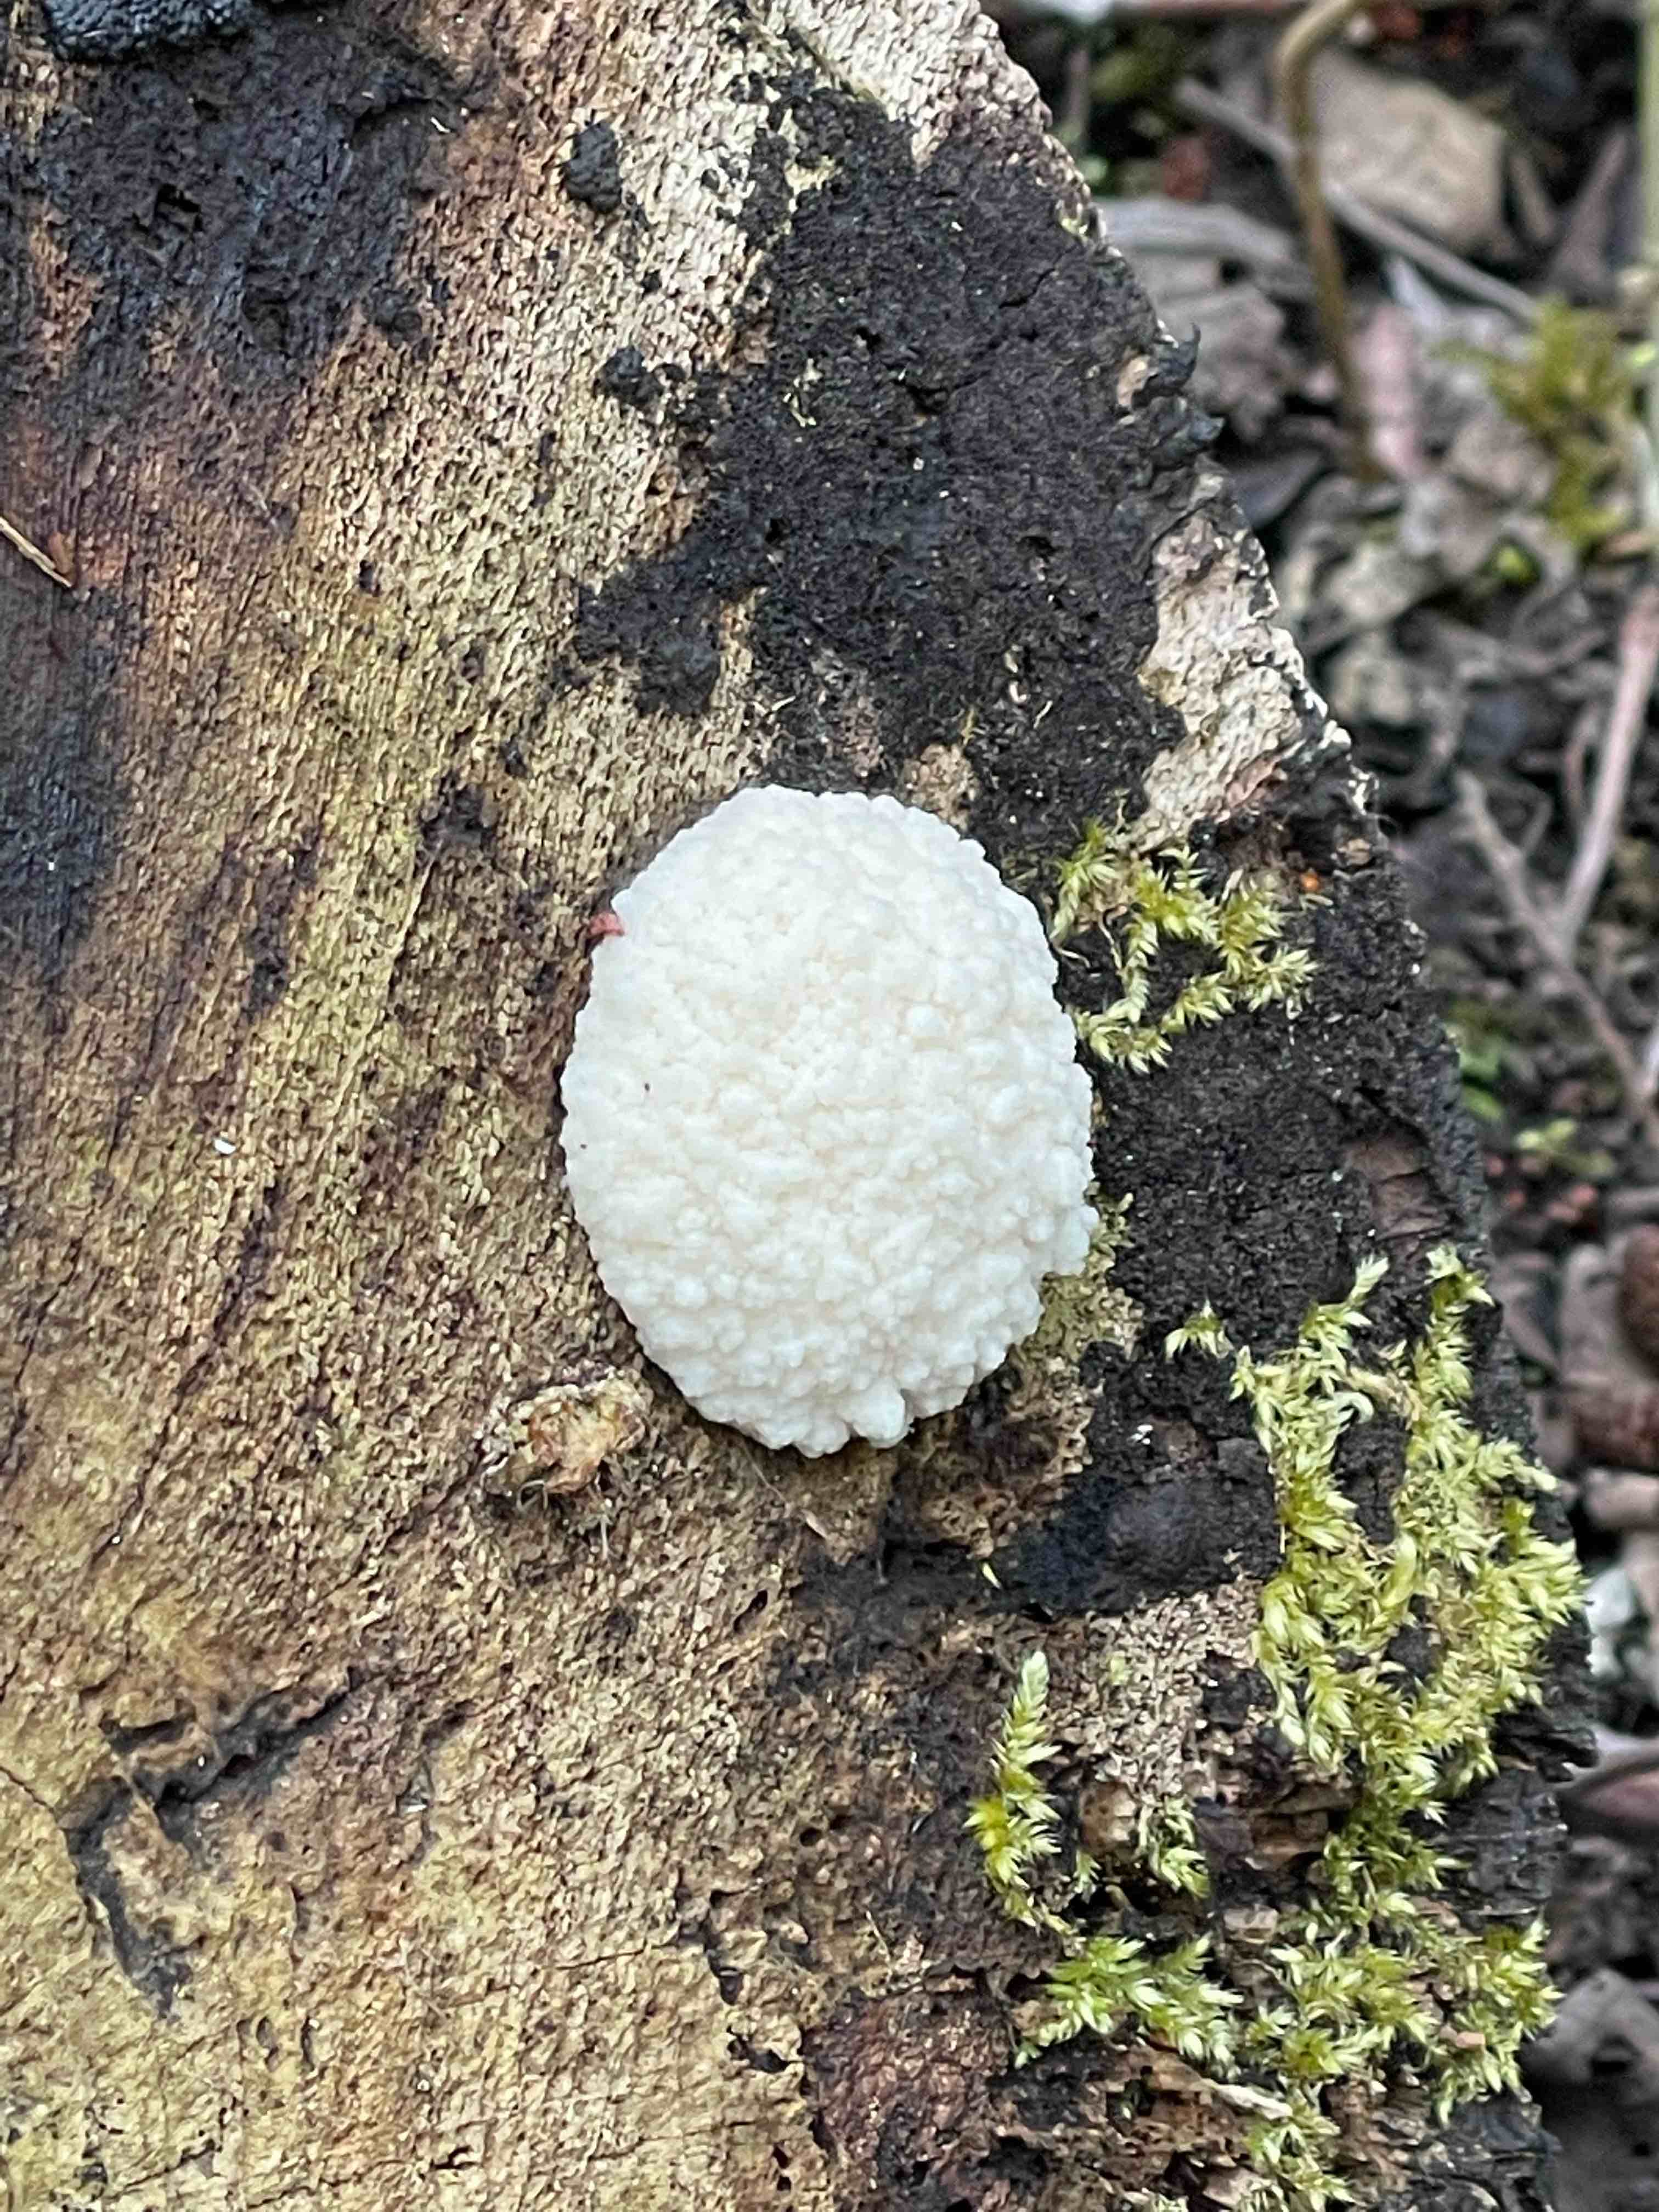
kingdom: Protozoa
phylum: Mycetozoa
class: Myxomycetes
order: Cribrariales
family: Tubiferaceae
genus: Reticularia
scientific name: Reticularia
